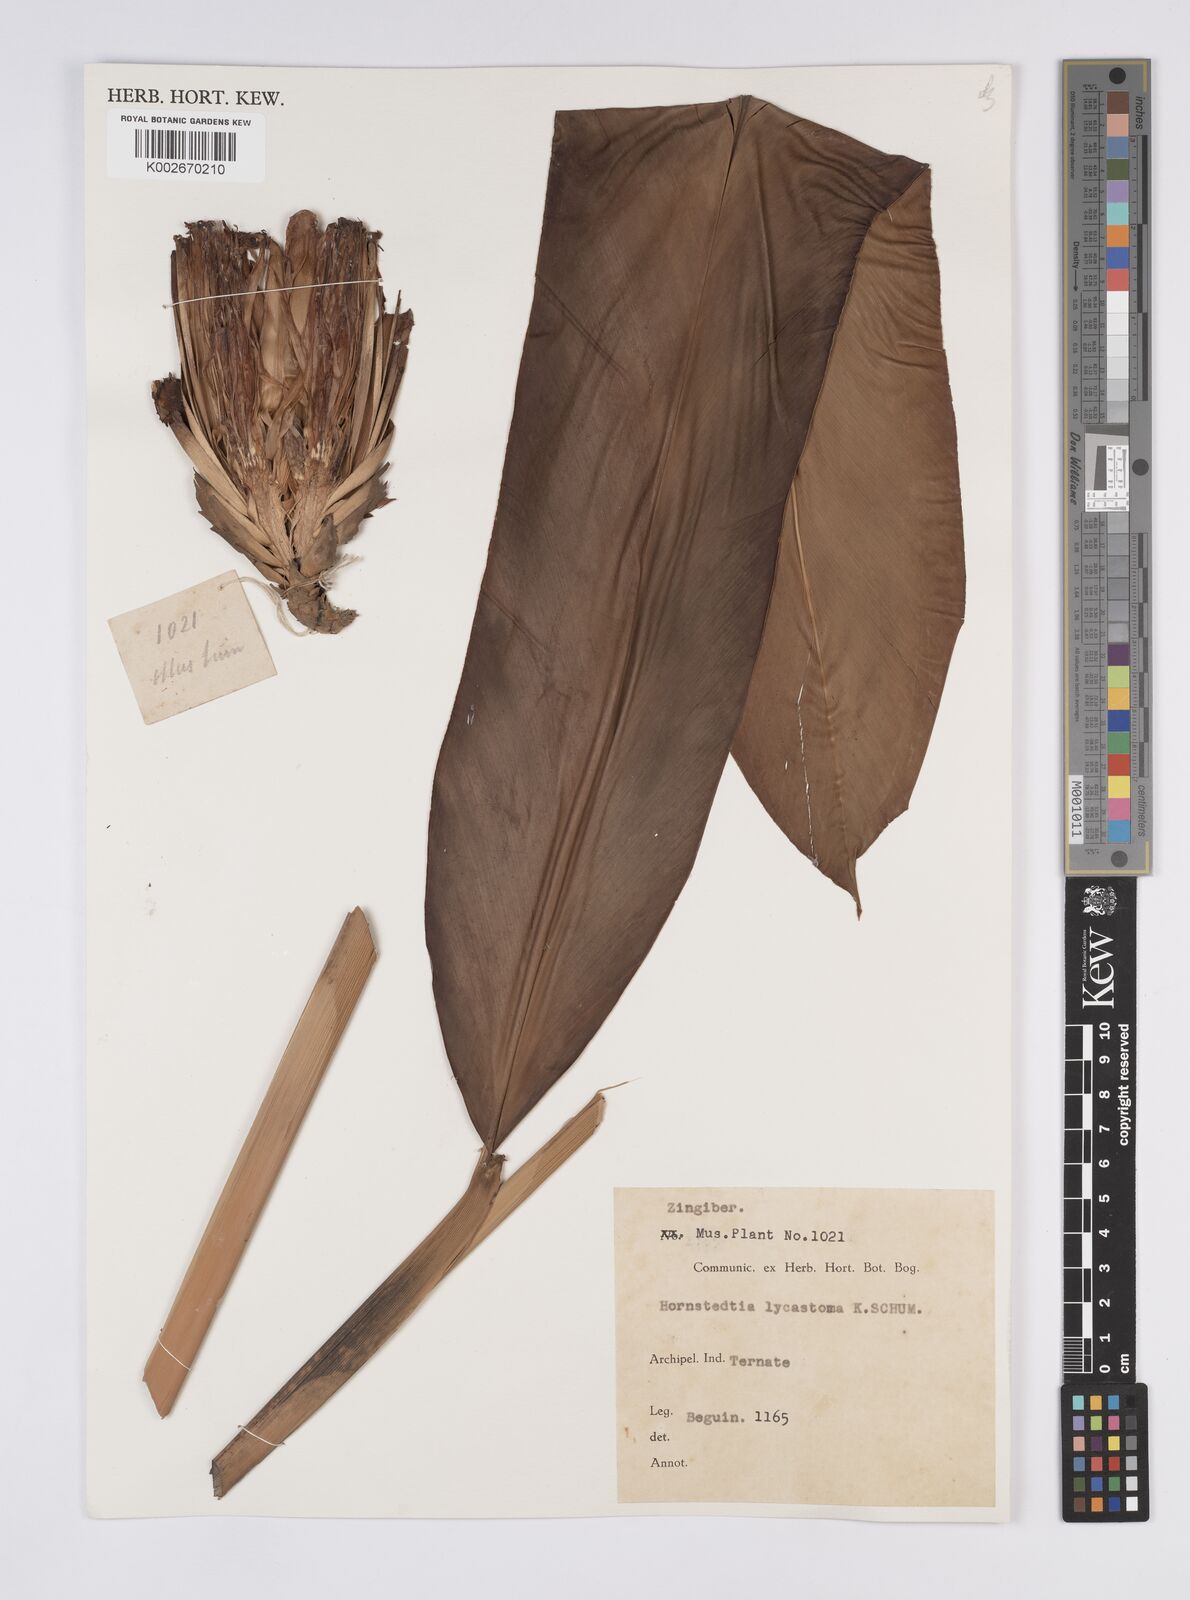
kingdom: Plantae
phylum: Tracheophyta
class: Liliopsida
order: Zingiberales
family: Zingiberaceae
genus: Hornstedtia
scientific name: Hornstedtia scottiana
